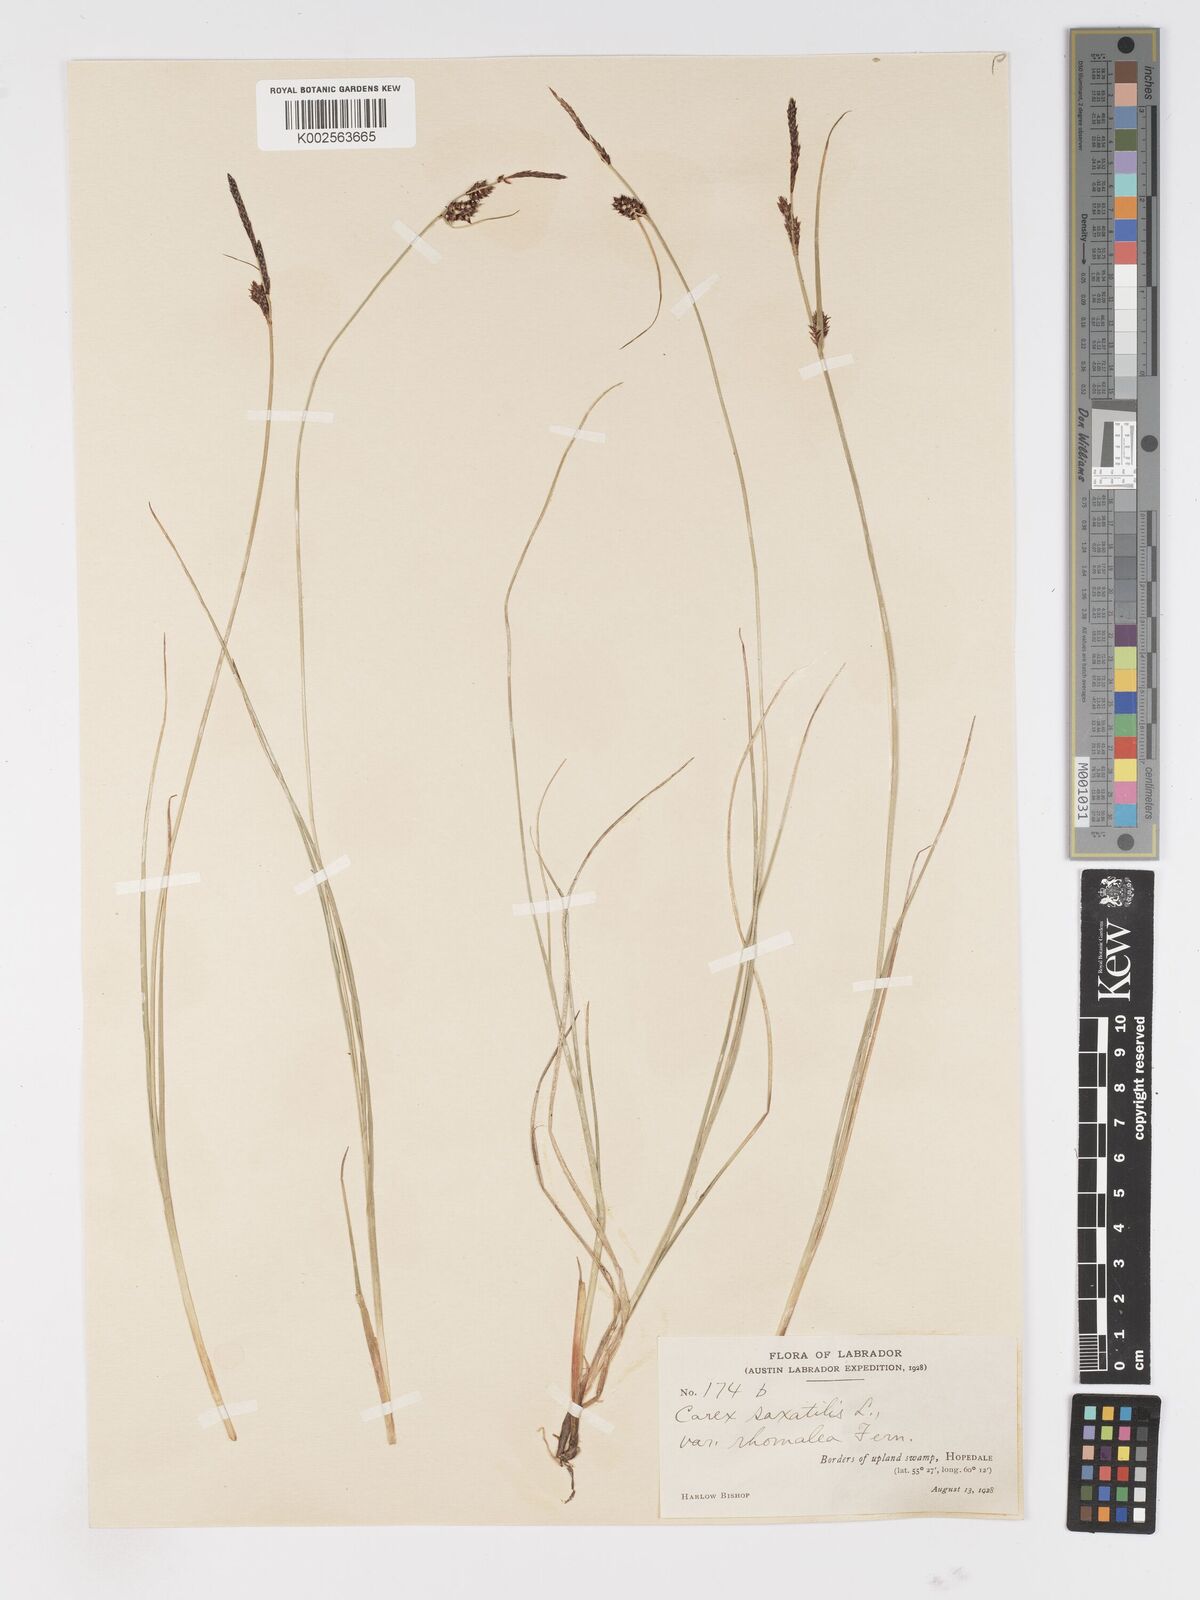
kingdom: Plantae
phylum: Tracheophyta
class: Liliopsida
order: Poales
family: Cyperaceae
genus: Carex
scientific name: Carex saxatilis
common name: Russet sedge
